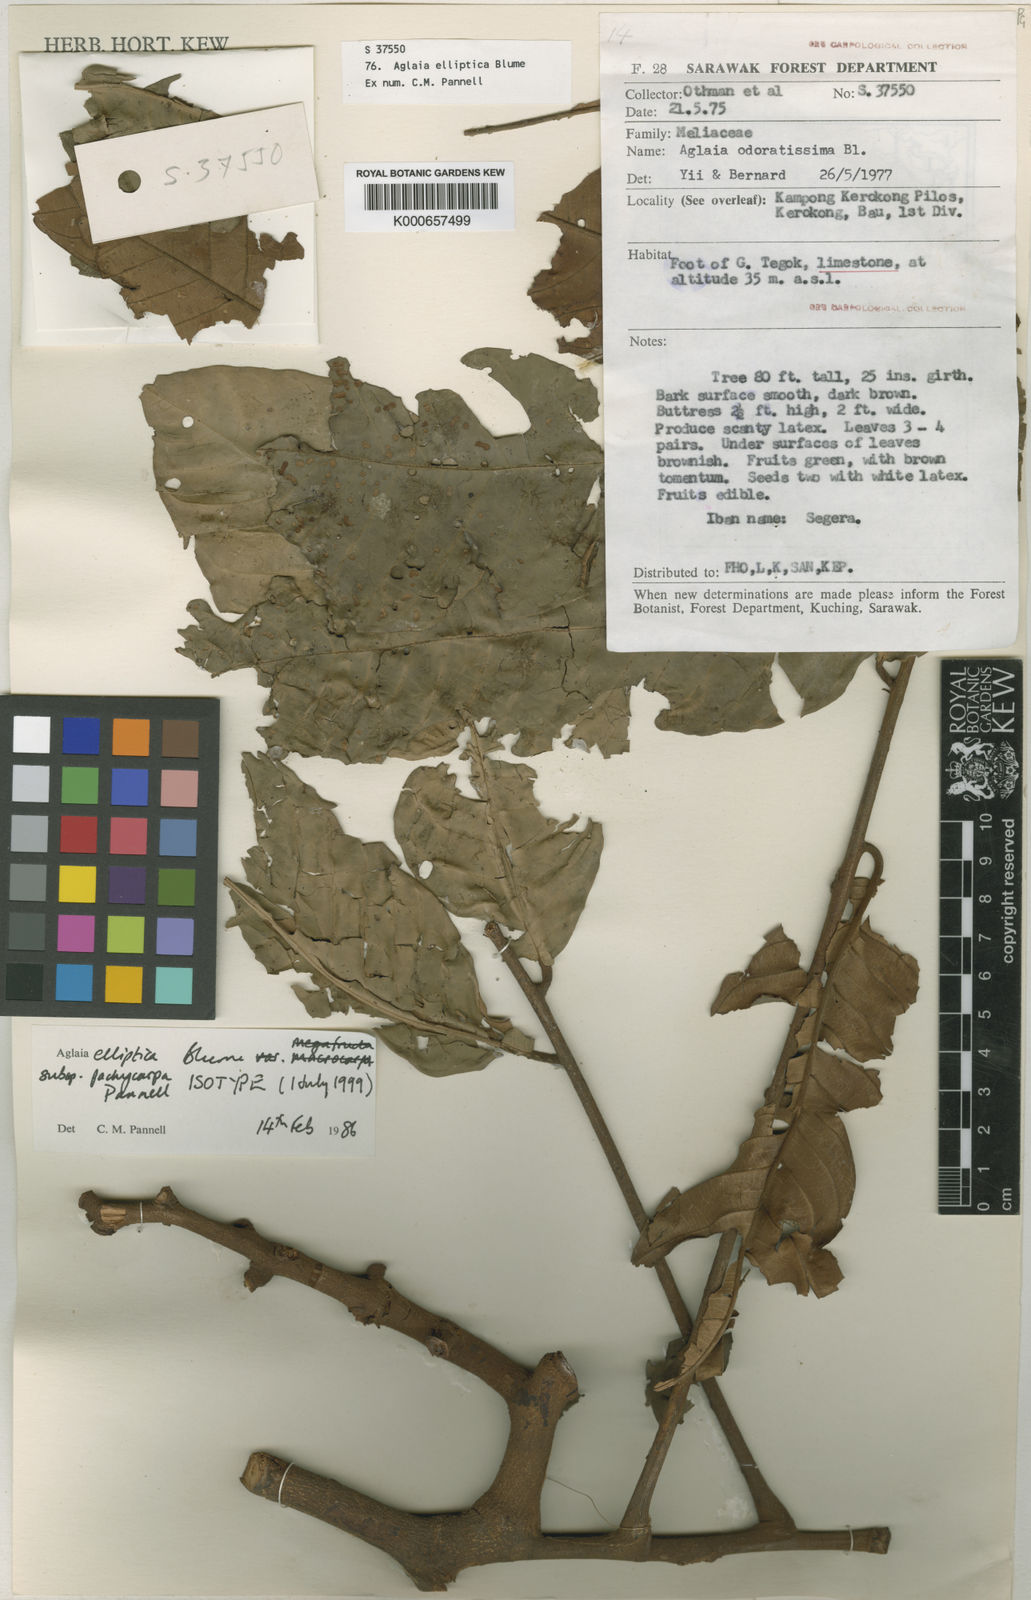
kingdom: Plantae
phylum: Tracheophyta
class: Magnoliopsida
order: Sapindales
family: Meliaceae
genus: Aglaia
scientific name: Aglaia elliptica
